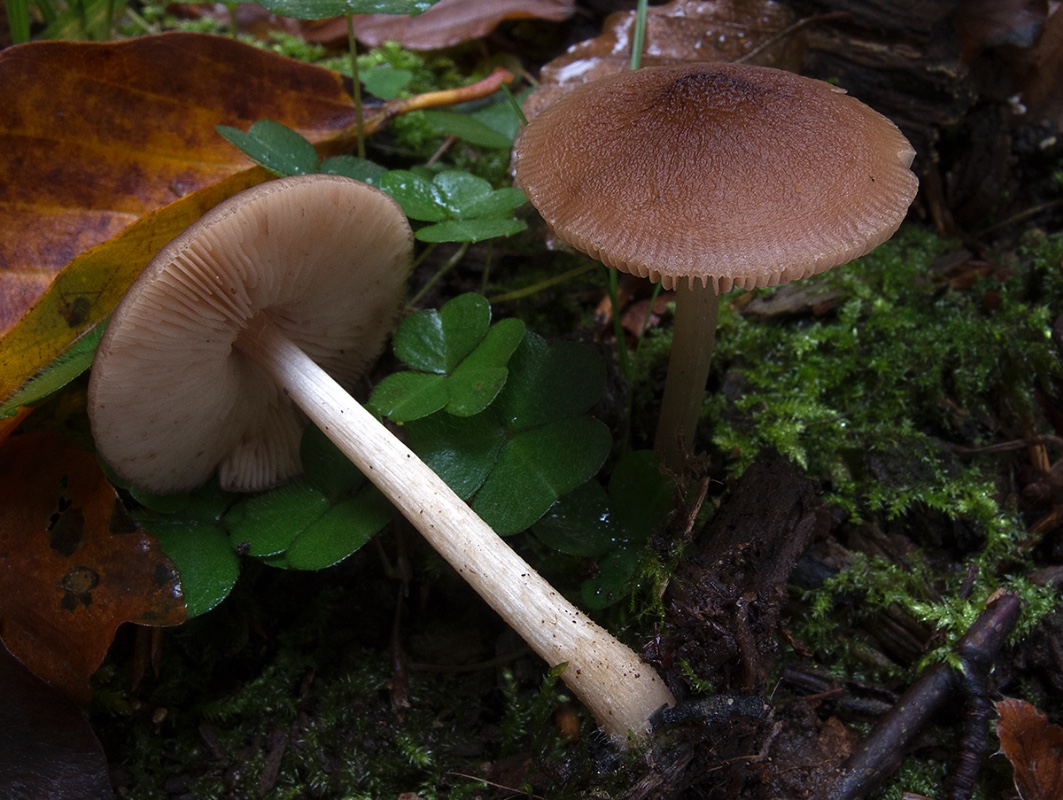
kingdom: Fungi
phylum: Basidiomycota
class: Agaricomycetes
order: Agaricales
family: Pluteaceae
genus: Pluteus
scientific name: Pluteus phlebophorus
